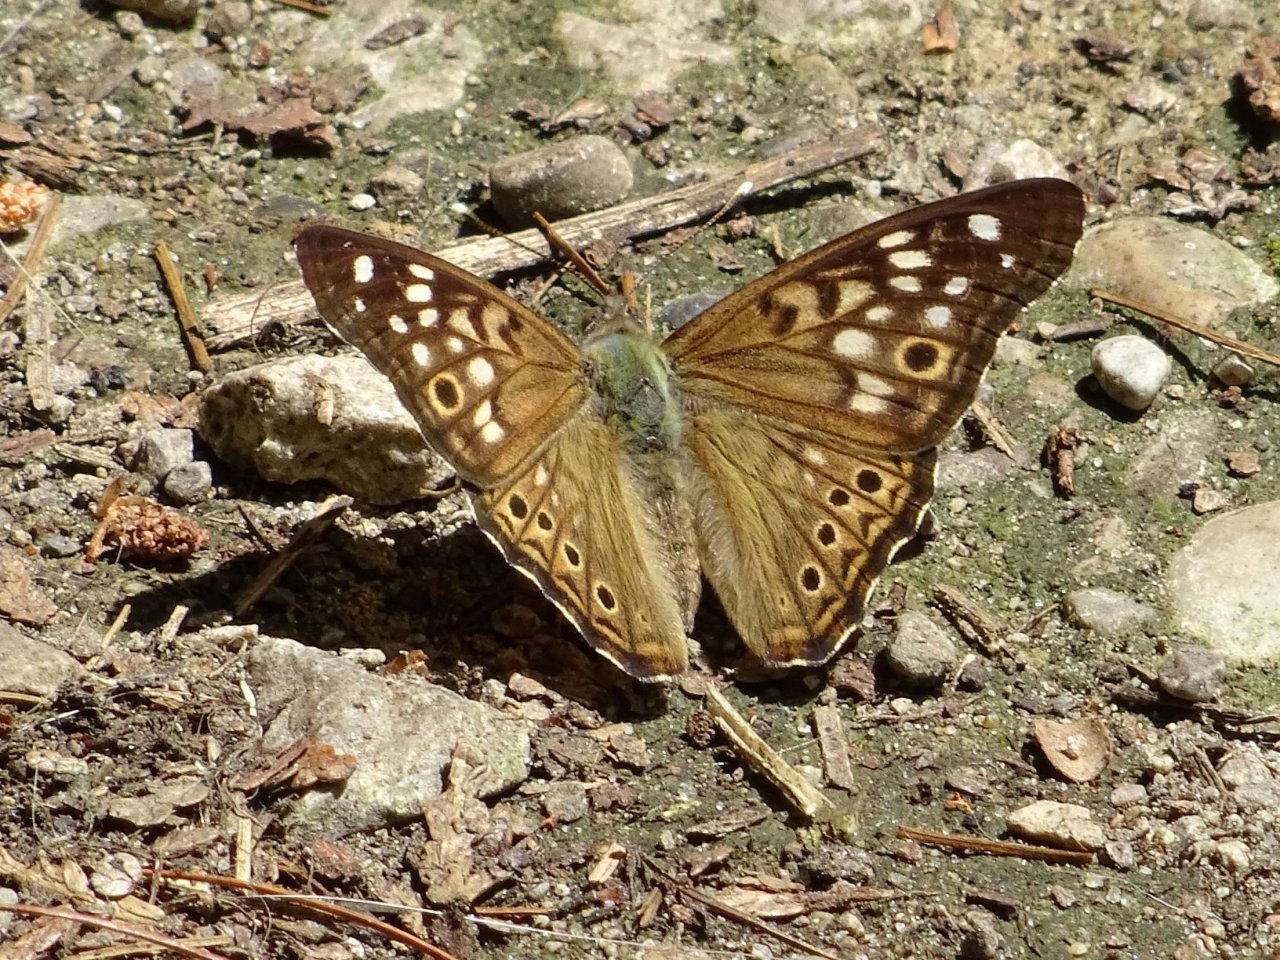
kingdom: Animalia
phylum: Arthropoda
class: Insecta
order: Lepidoptera
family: Nymphalidae
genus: Asterocampa
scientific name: Asterocampa celtis
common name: Hackberry Emperor
